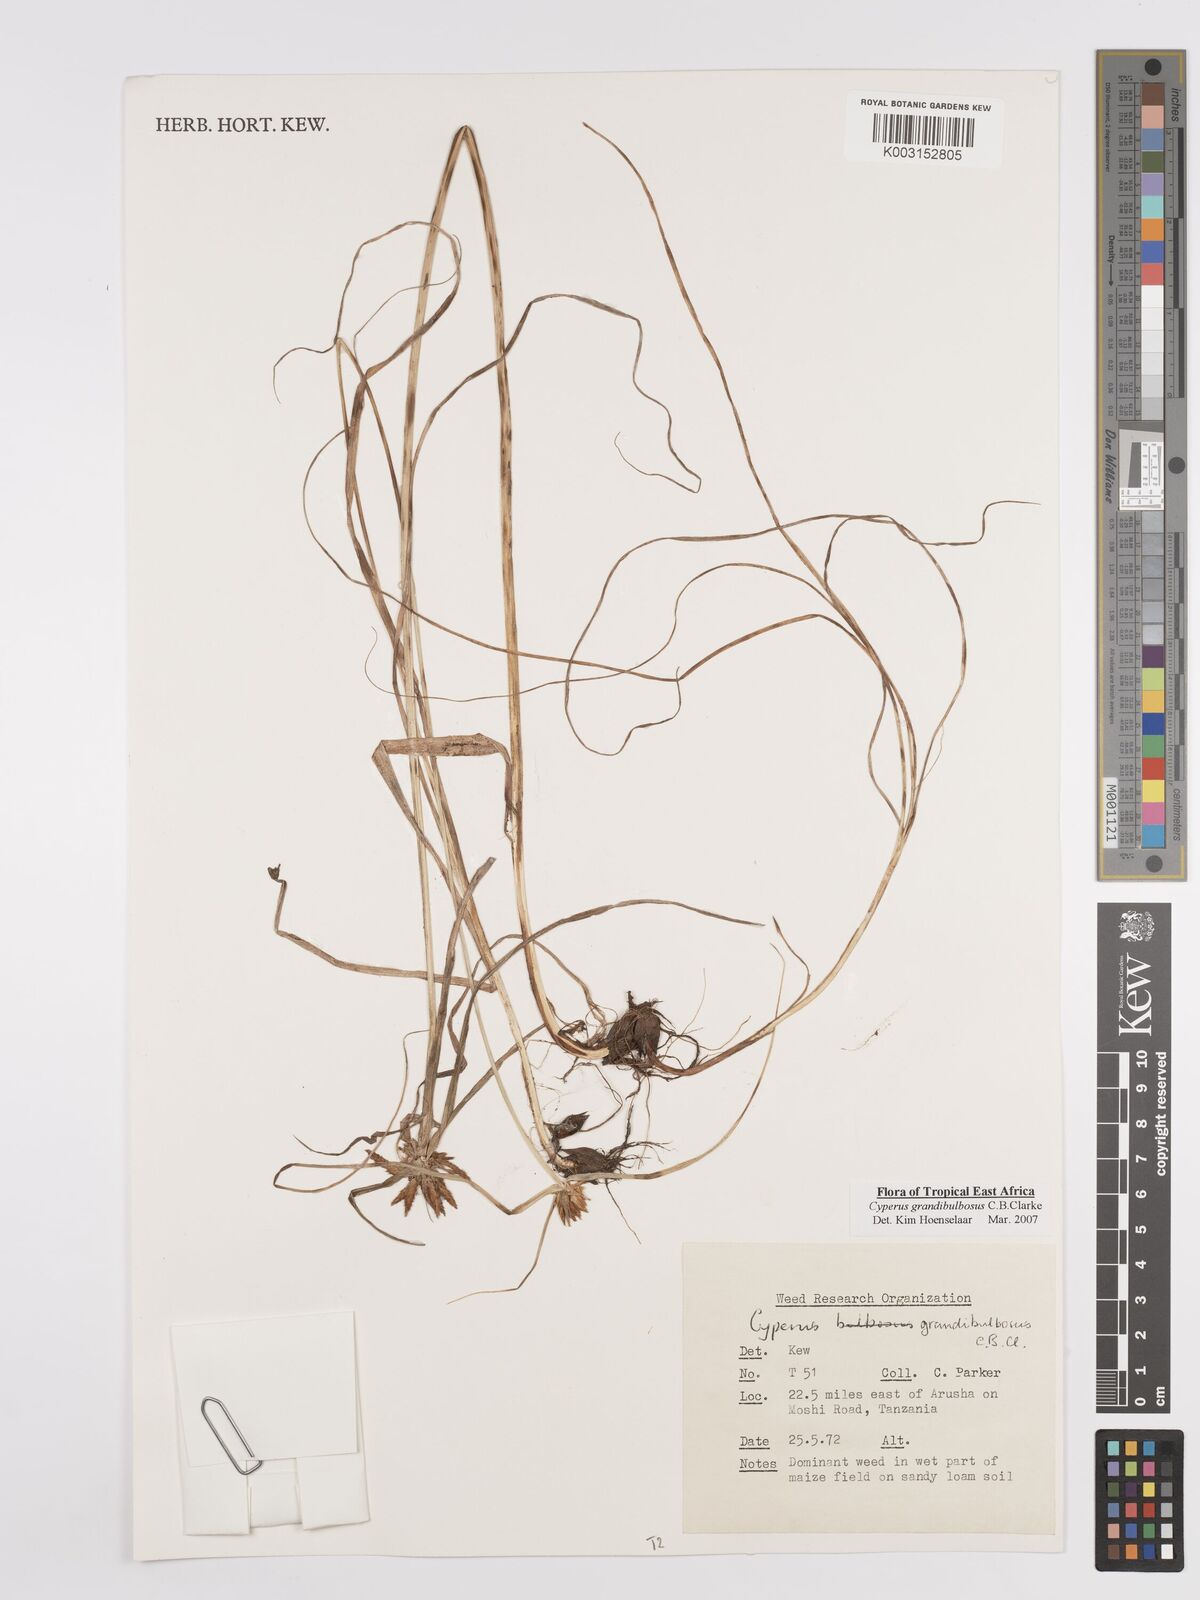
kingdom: Plantae
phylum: Tracheophyta
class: Liliopsida
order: Poales
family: Cyperaceae
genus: Cyperus
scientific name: Cyperus grandibulbosus
